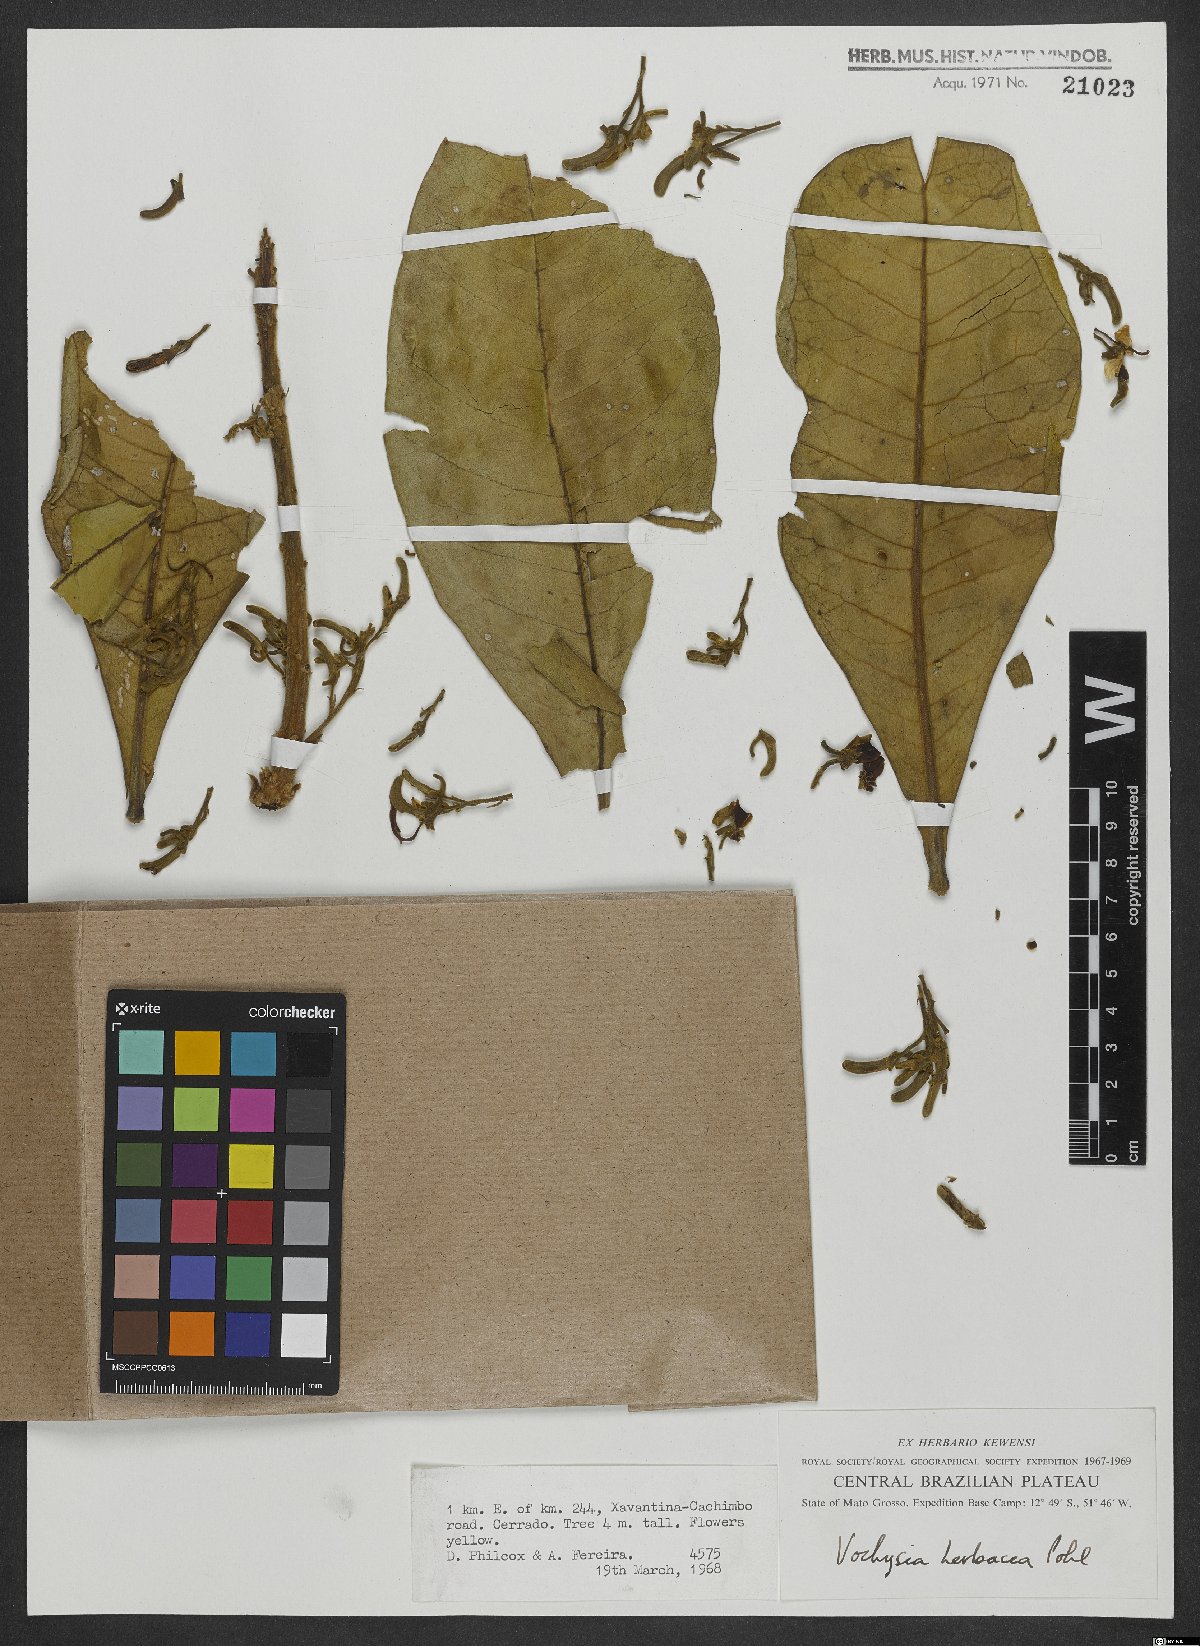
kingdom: Plantae
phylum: Tracheophyta
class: Magnoliopsida
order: Myrtales
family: Vochysiaceae
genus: Vochysia
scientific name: Vochysia herbacea
